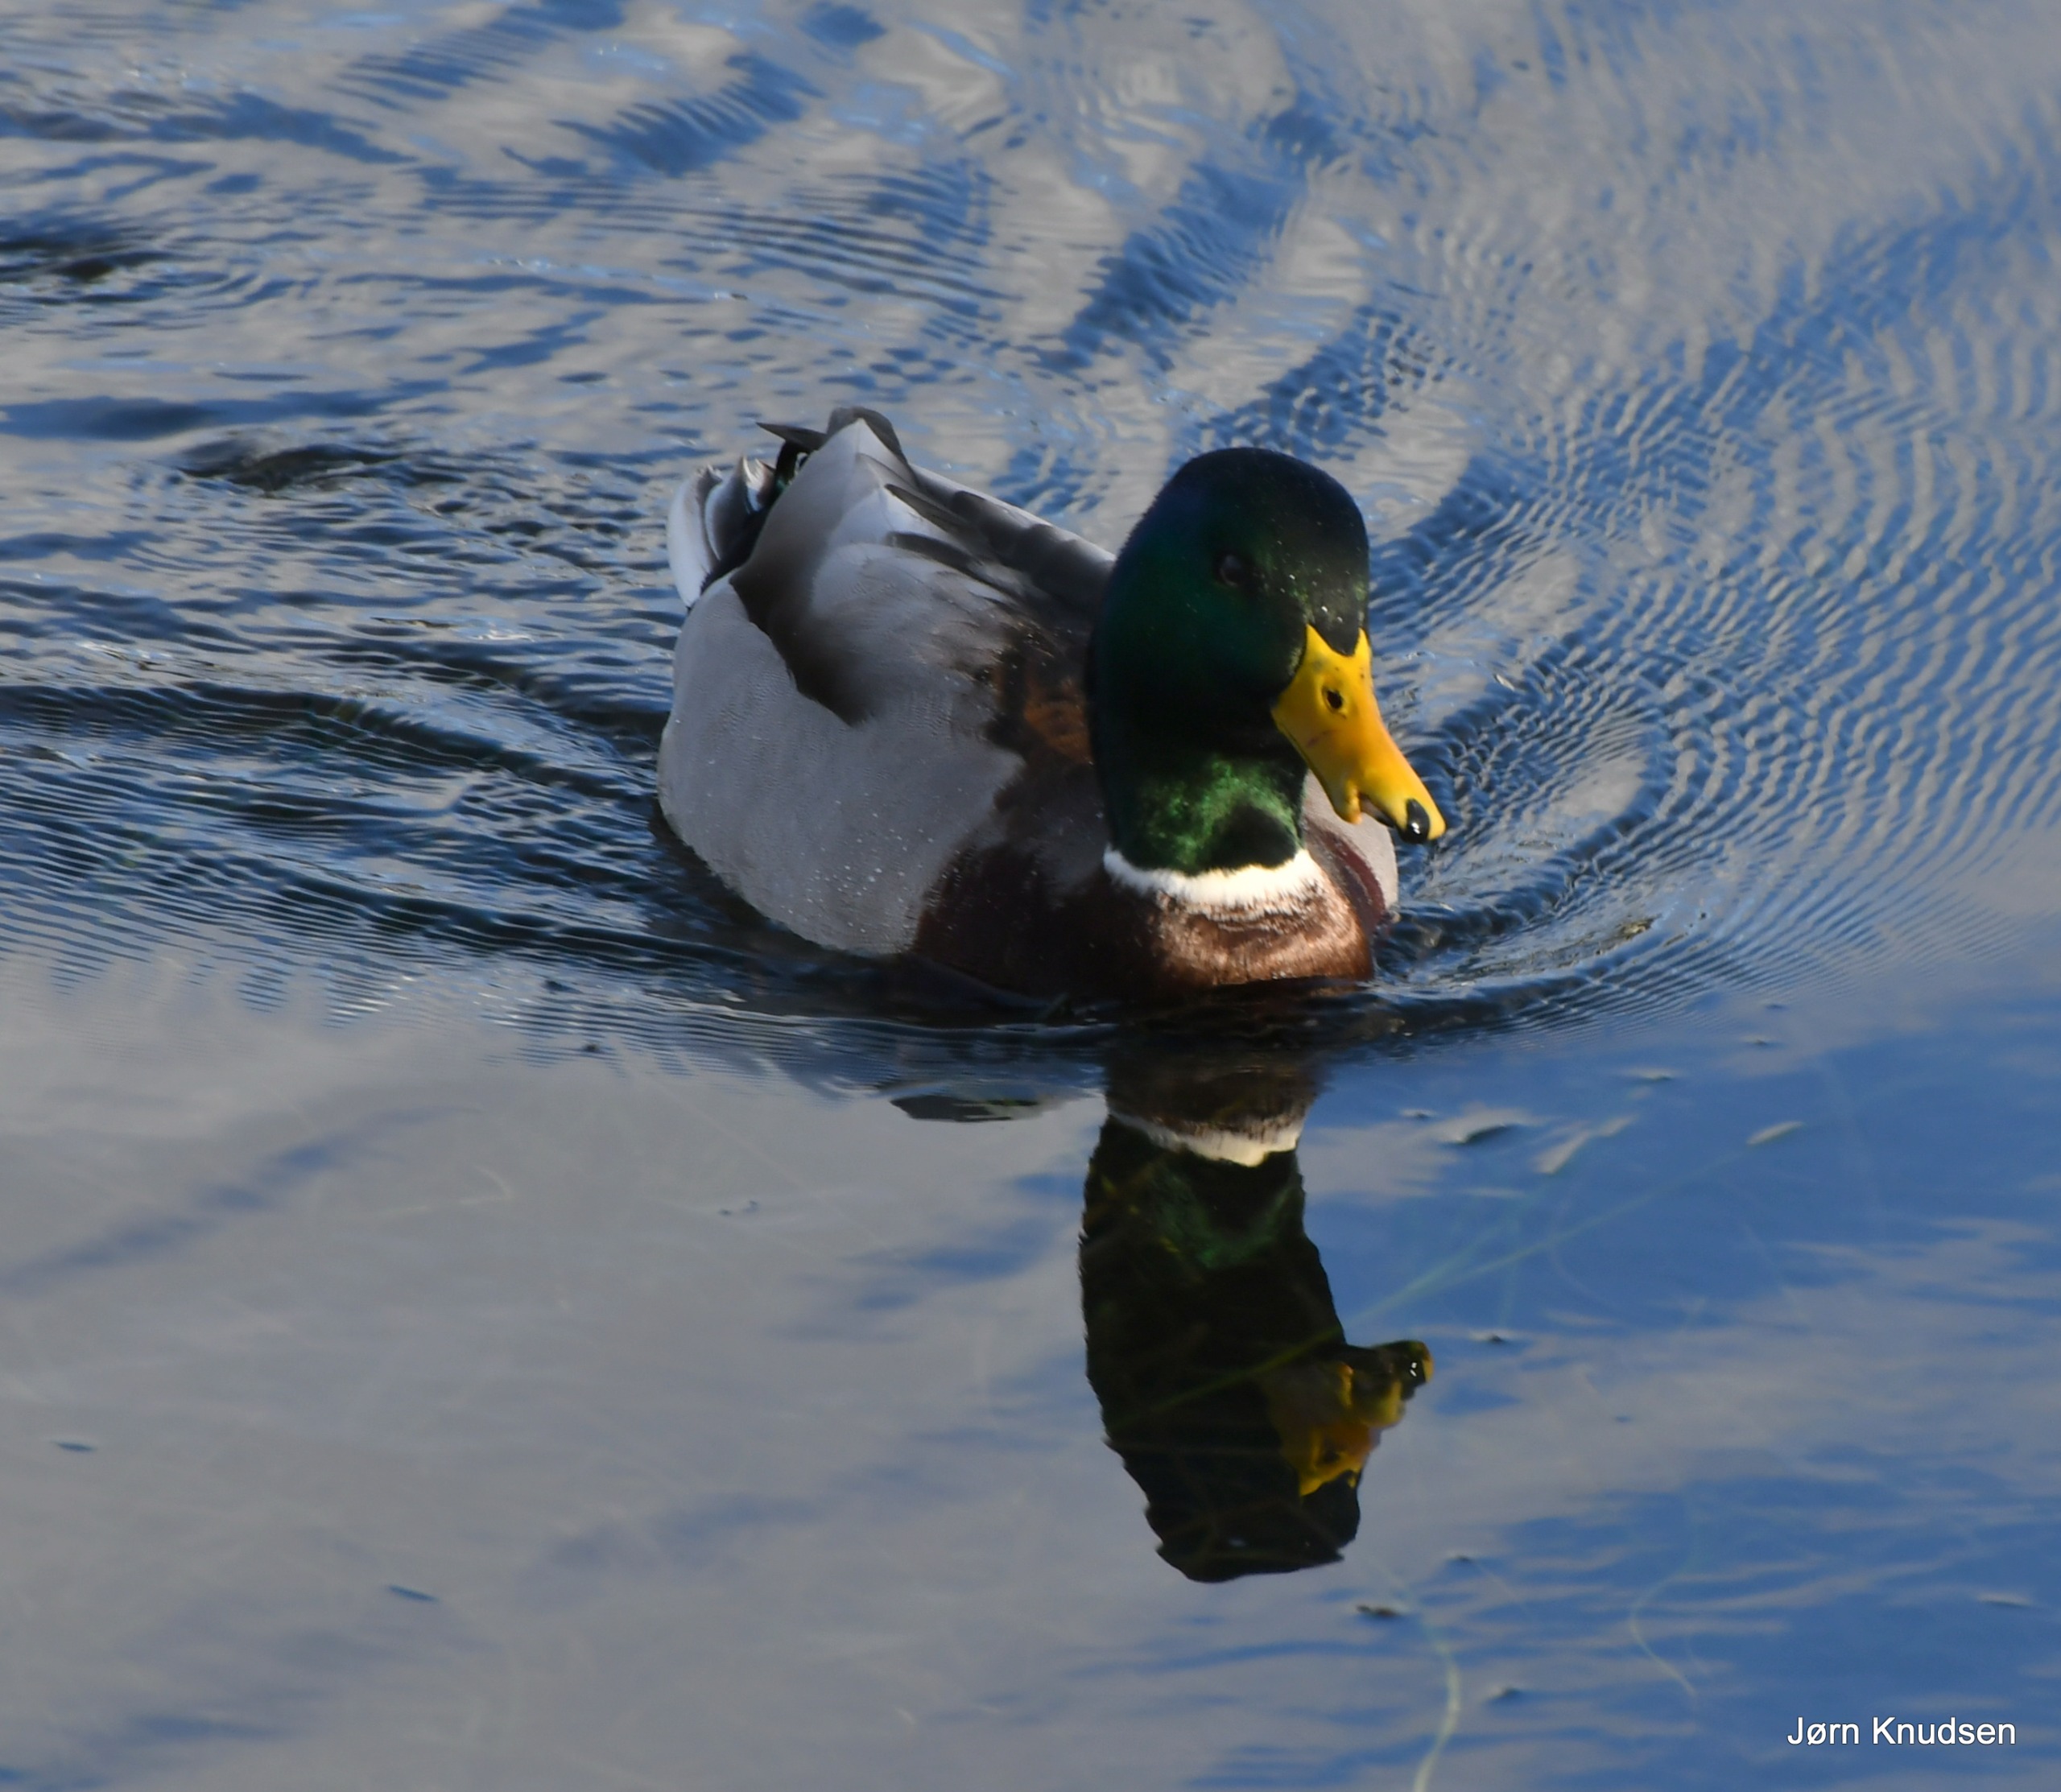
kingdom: Animalia
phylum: Chordata
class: Aves
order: Anseriformes
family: Anatidae
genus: Anas
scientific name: Anas platyrhynchos
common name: Gråand
